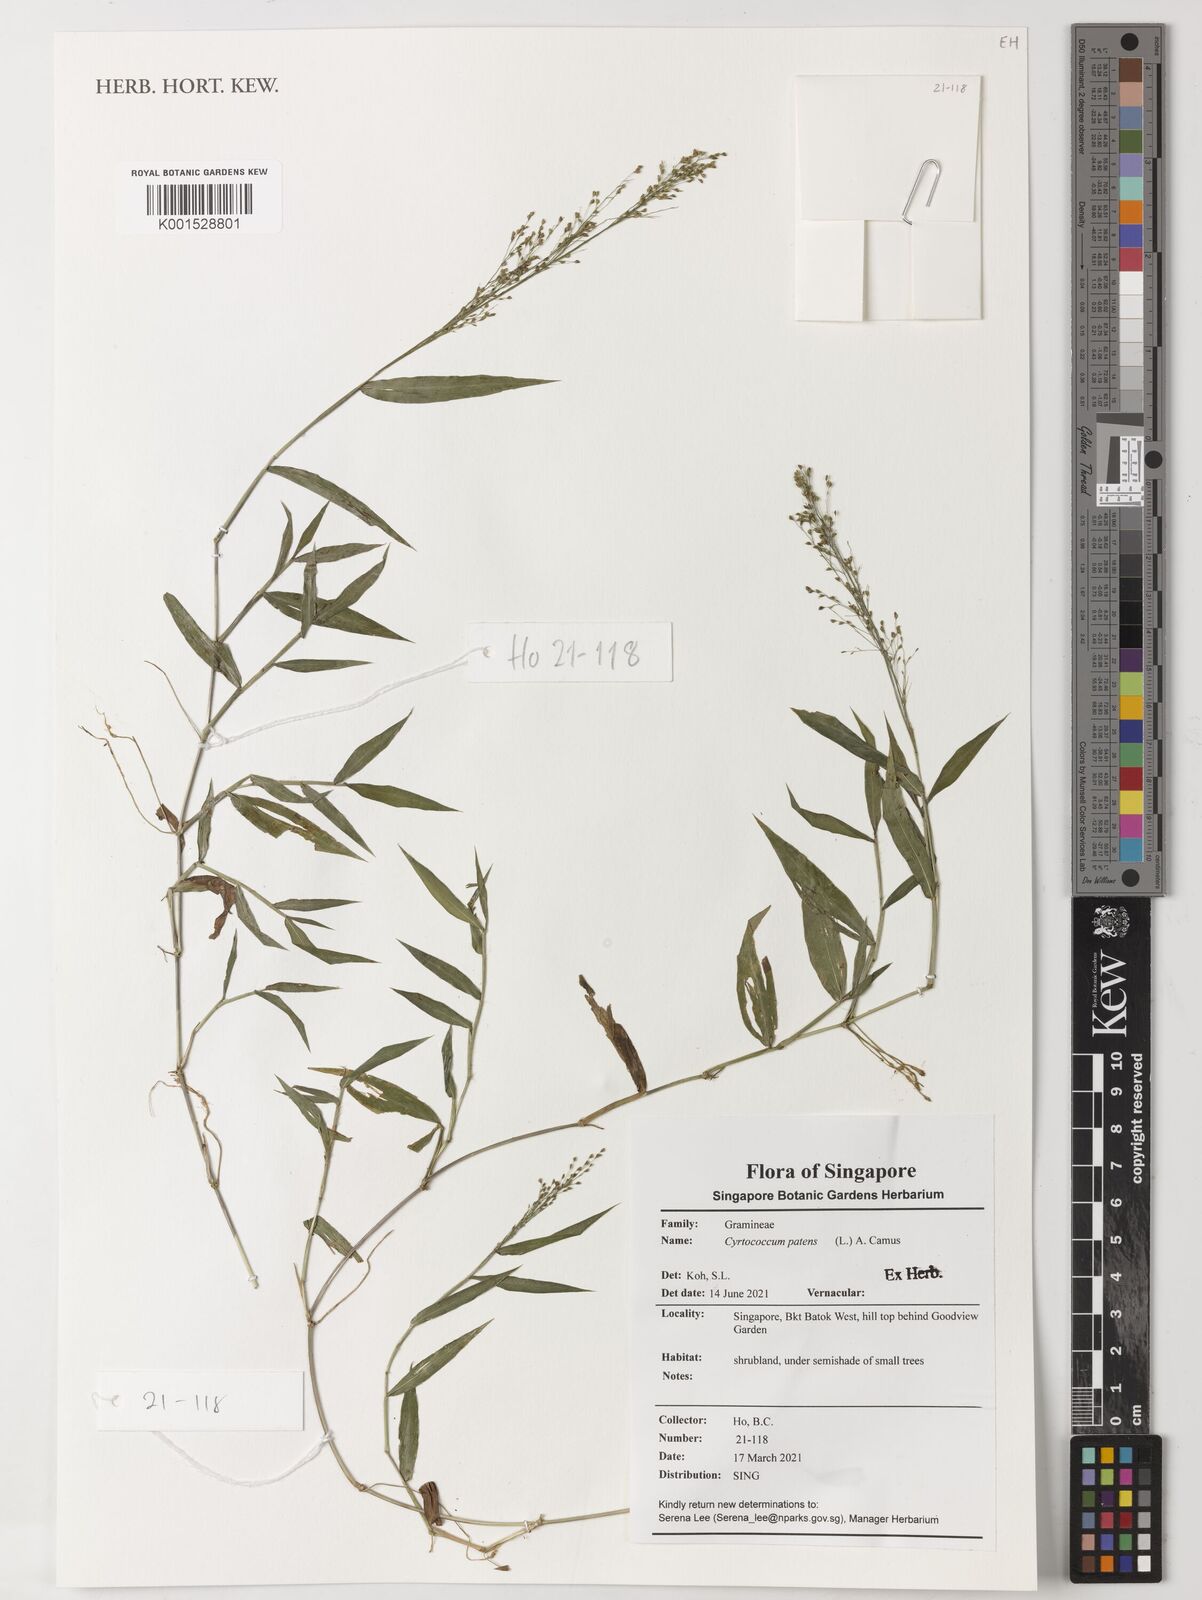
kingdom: Plantae
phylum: Tracheophyta
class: Liliopsida
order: Poales
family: Poaceae
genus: Cyrtococcum
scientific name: Cyrtococcum patens
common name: Broad-leaved bowgrass
